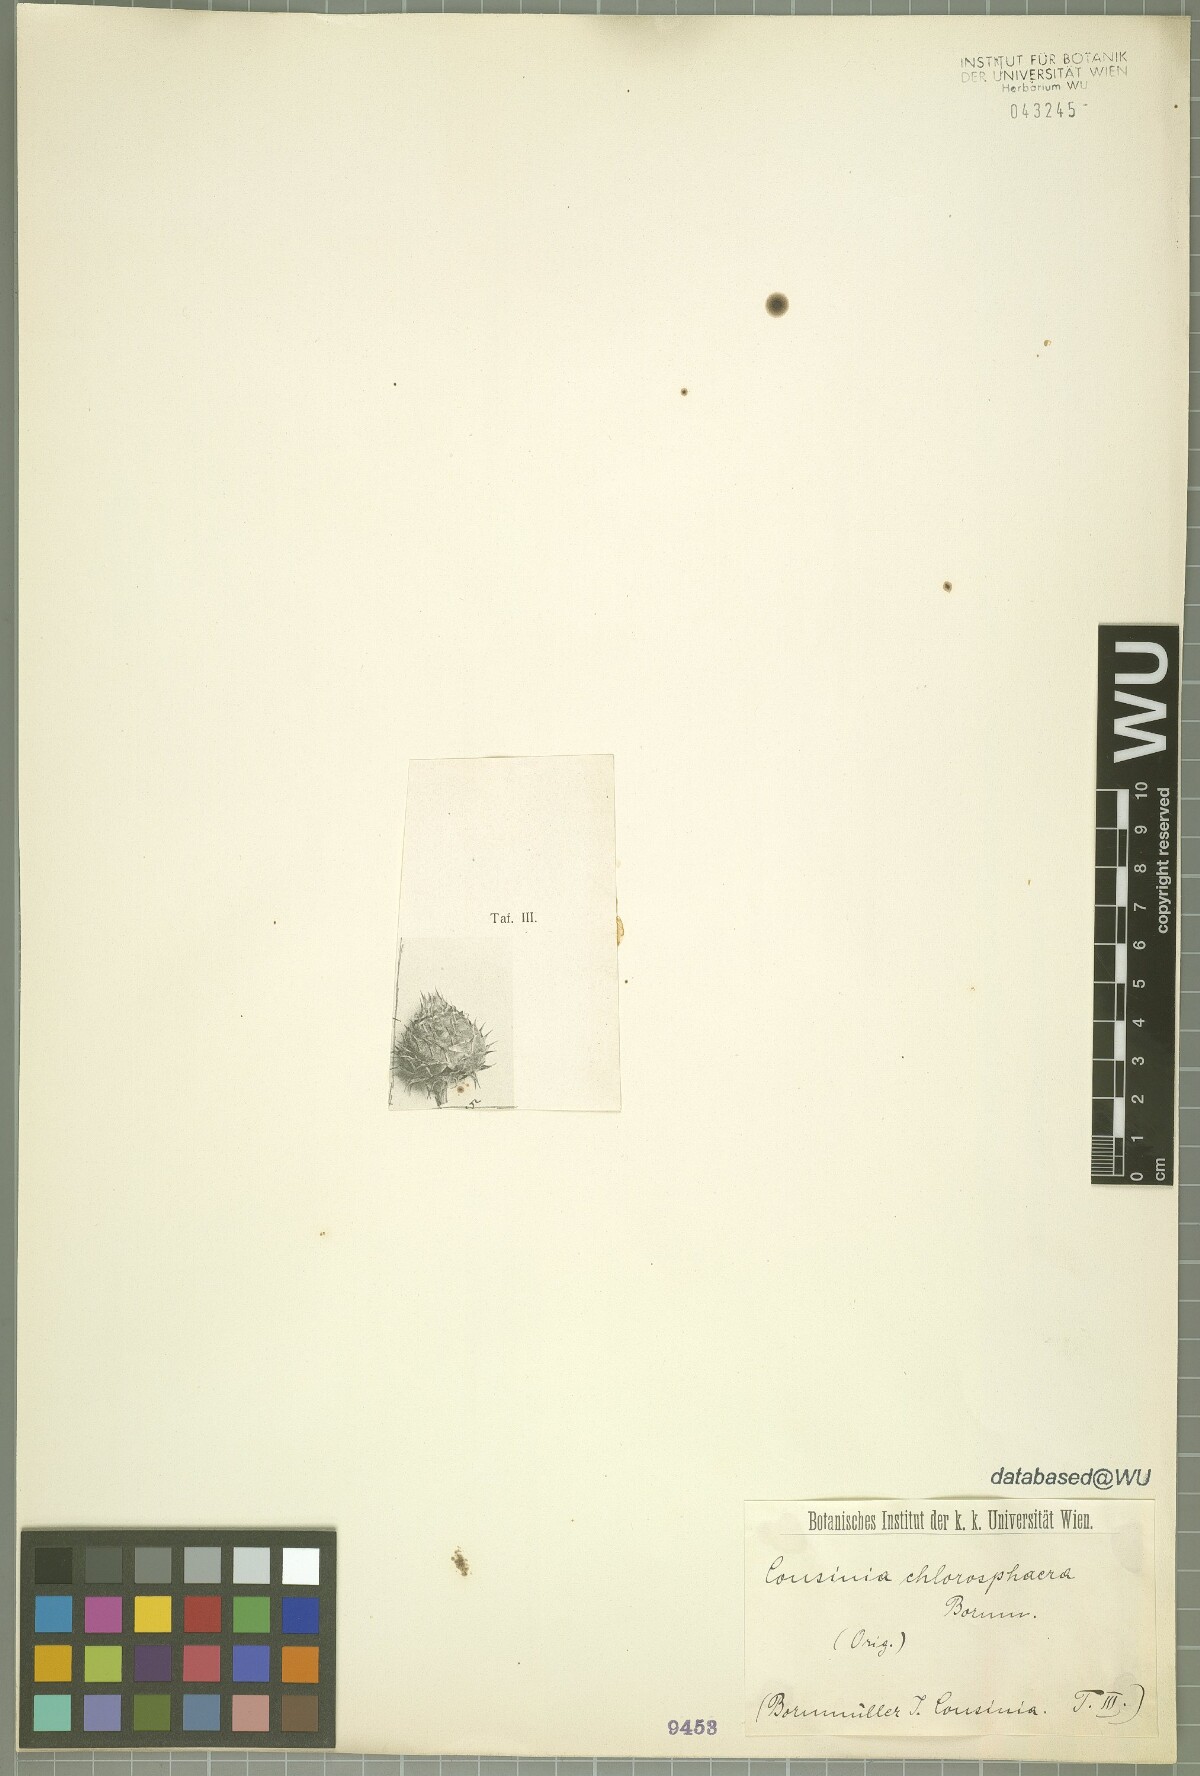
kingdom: Plantae
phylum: Tracheophyta
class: Magnoliopsida
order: Asterales
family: Asteraceae
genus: Cousinia
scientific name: Cousinia chlorosphaera
